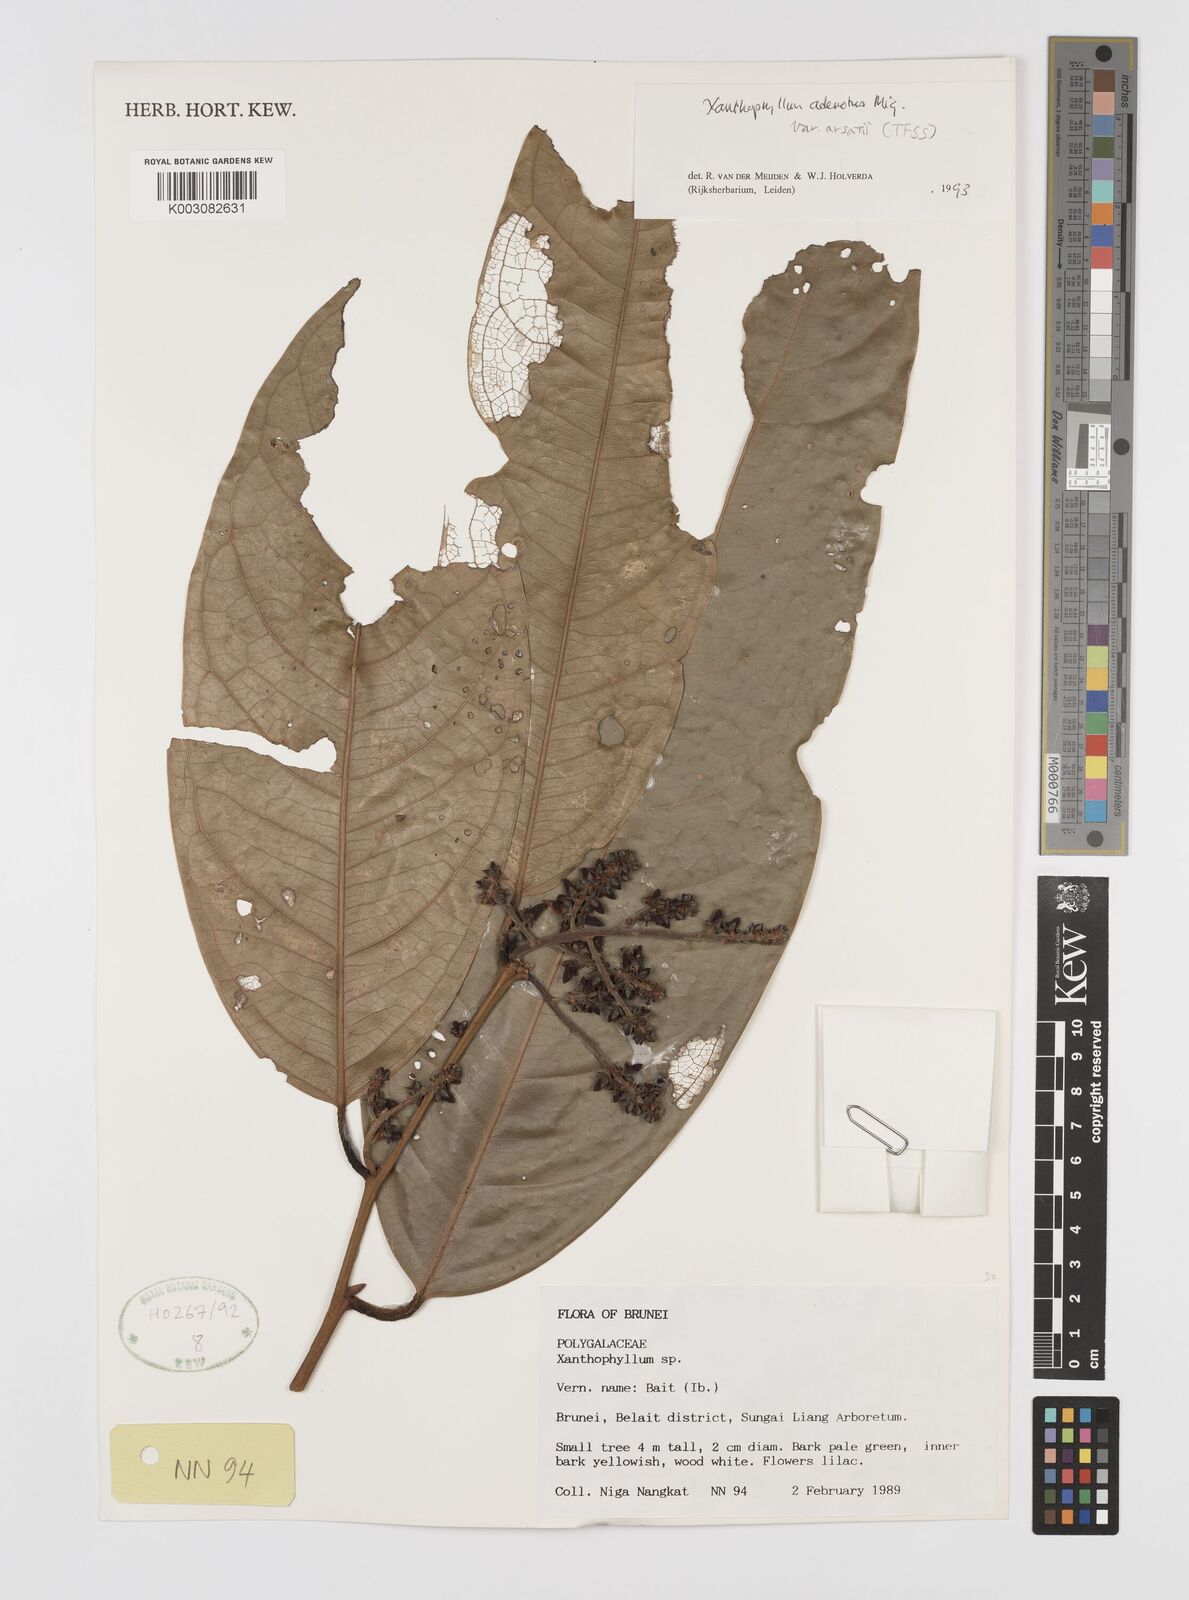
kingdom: Plantae
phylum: Tracheophyta
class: Magnoliopsida
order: Fabales
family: Polygalaceae
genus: Xanthophyllum
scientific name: Xanthophyllum adenotus
